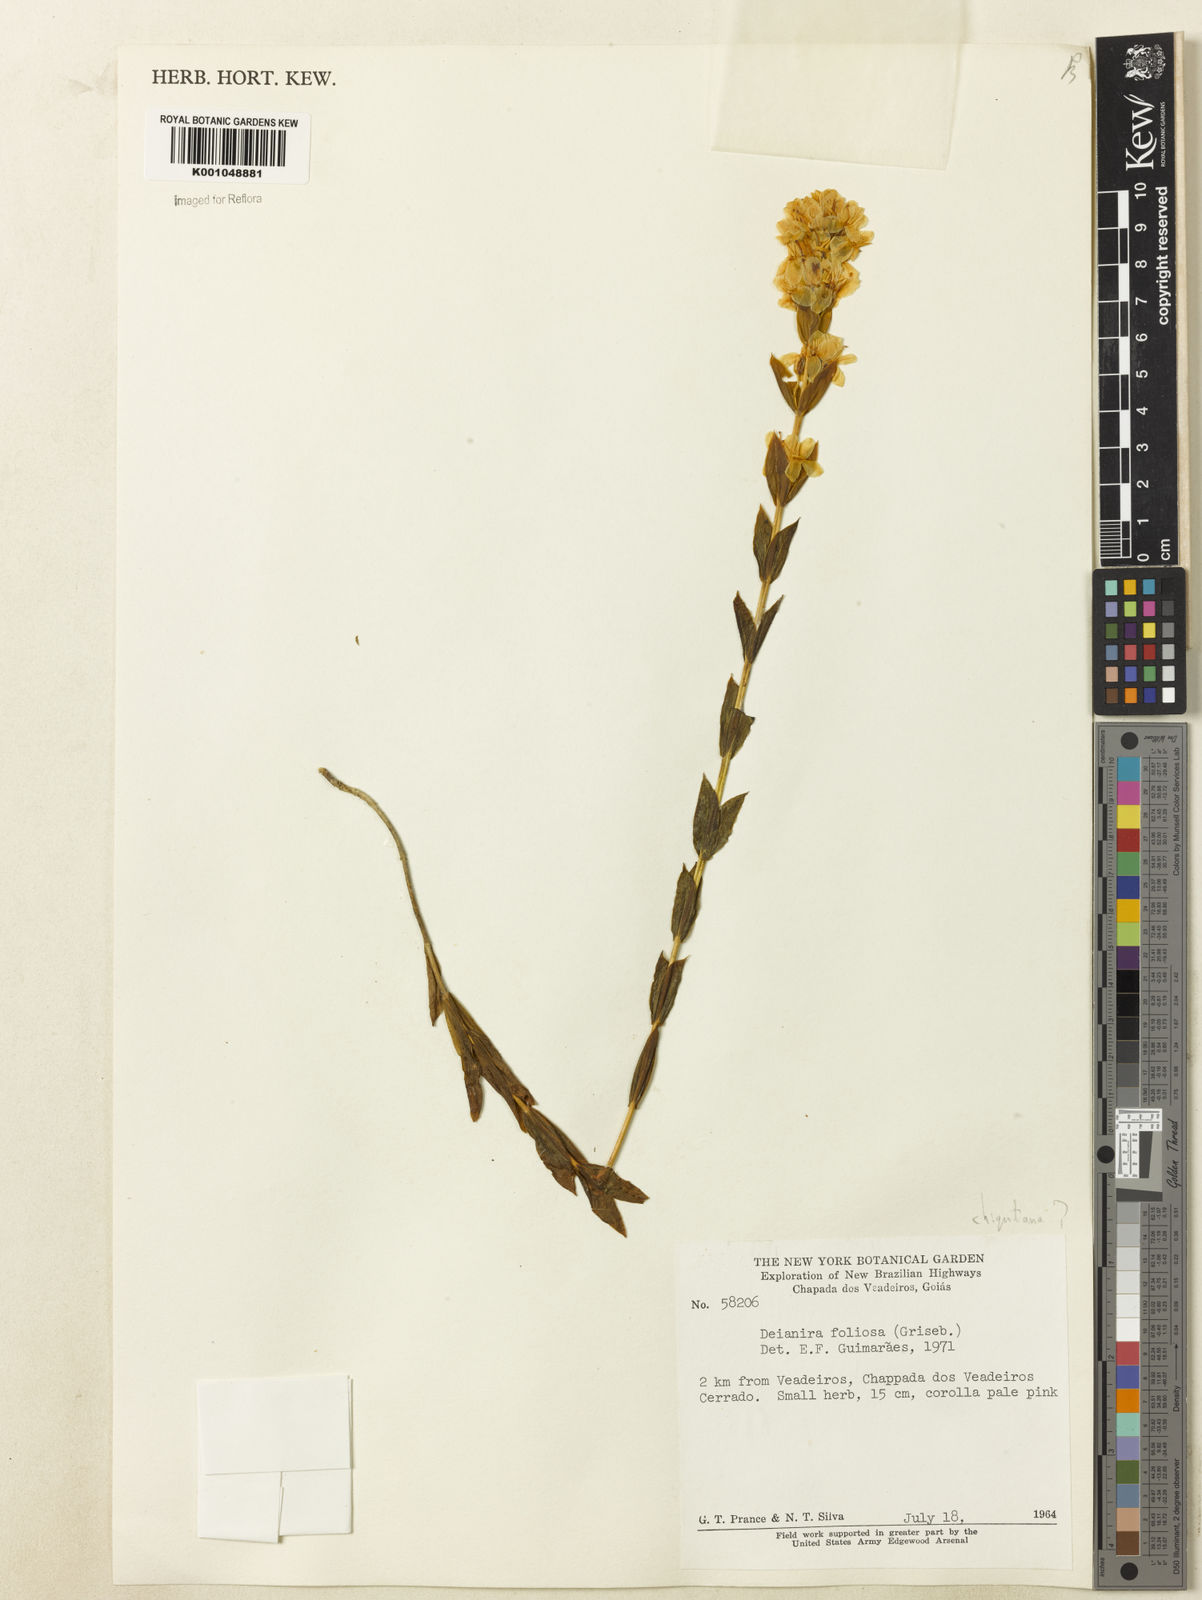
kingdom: Plantae
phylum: Tracheophyta
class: Magnoliopsida
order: Gentianales
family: Gentianaceae
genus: Deianira
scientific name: Deianira chiquitana
